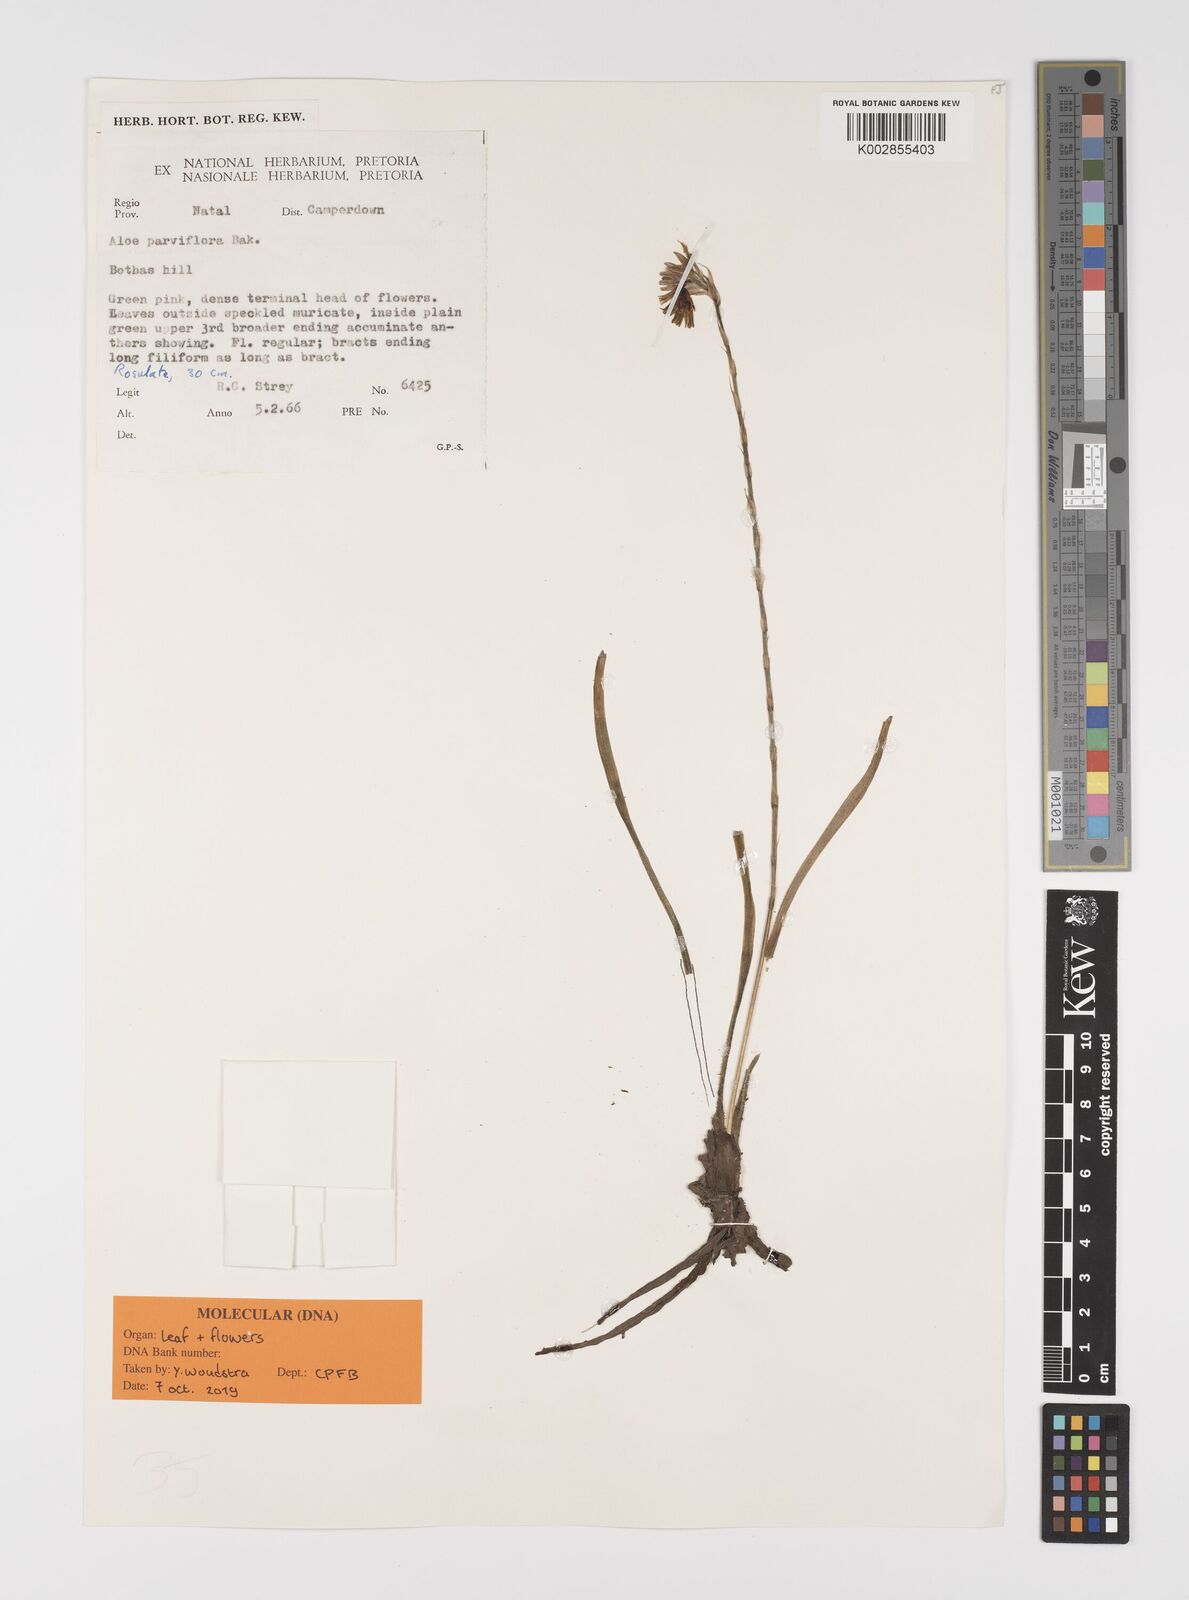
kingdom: Plantae
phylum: Tracheophyta
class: Liliopsida
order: Asparagales
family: Asphodelaceae
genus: Aloe
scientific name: Aloe parviflora
